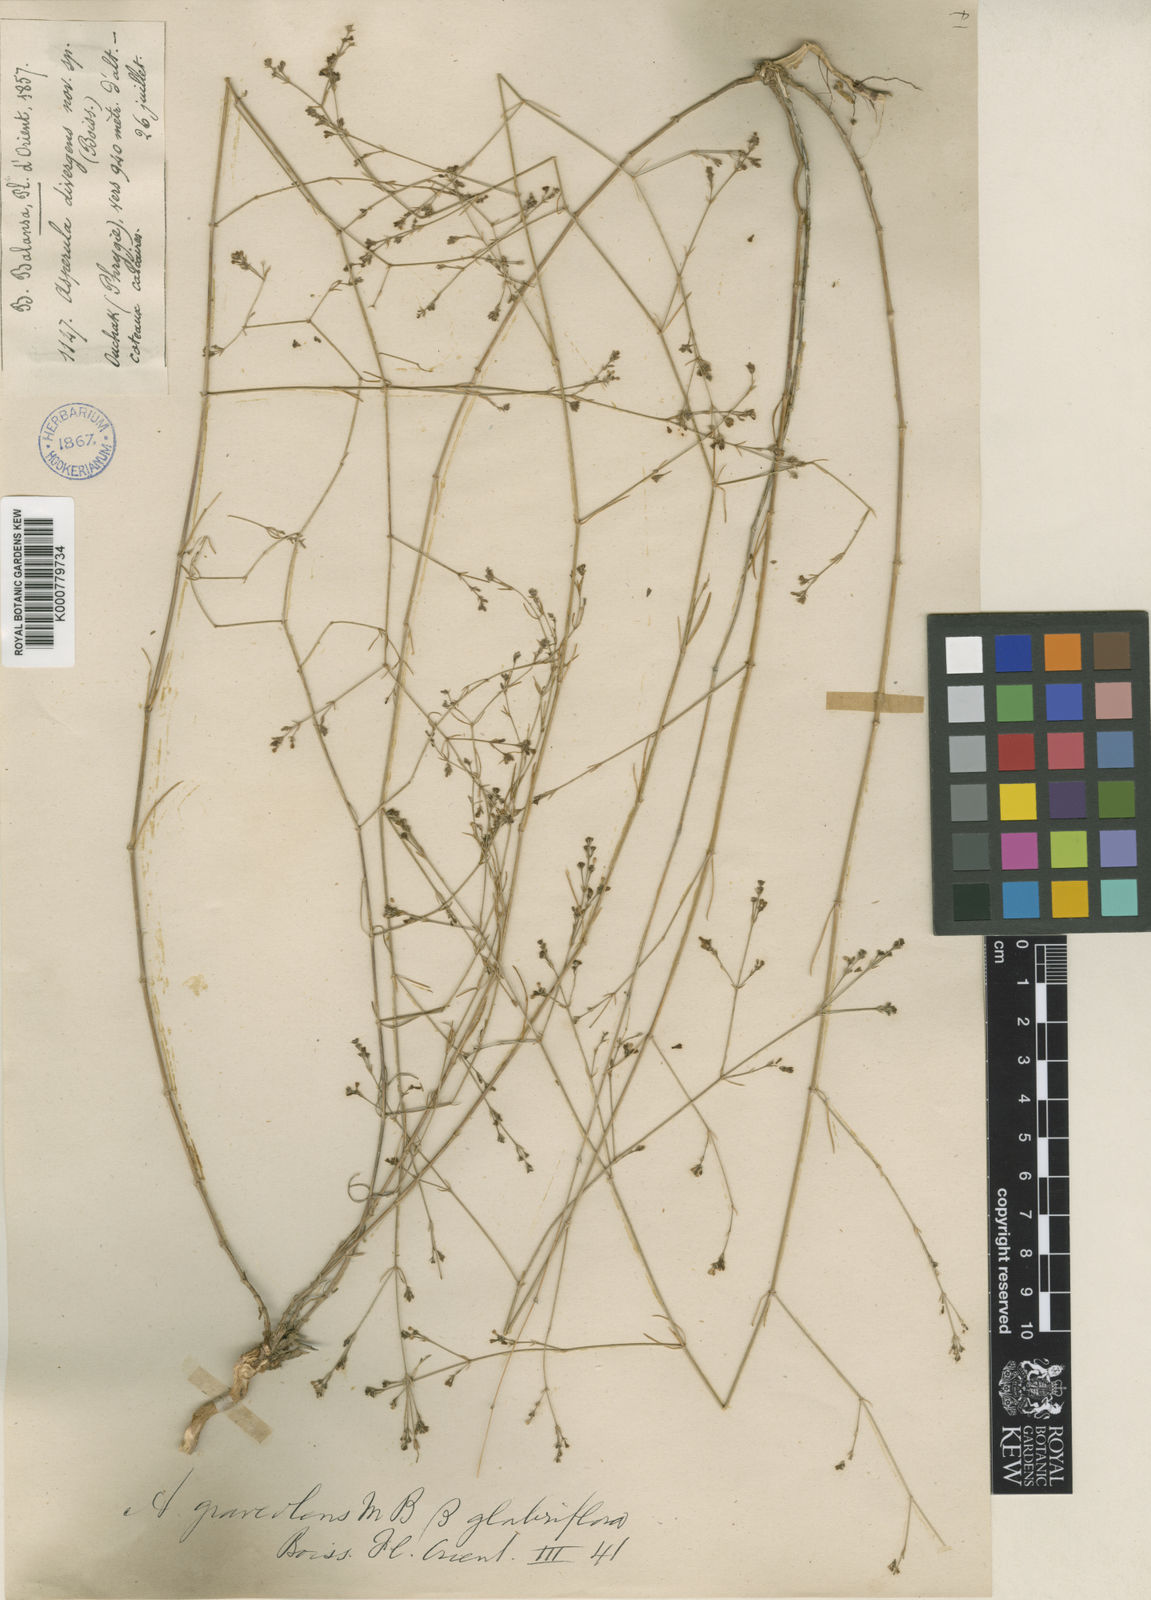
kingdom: Plantae
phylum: Tracheophyta
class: Magnoliopsida
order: Gentianales
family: Rubiaceae
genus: Cynanchica
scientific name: Cynanchica rumelica
